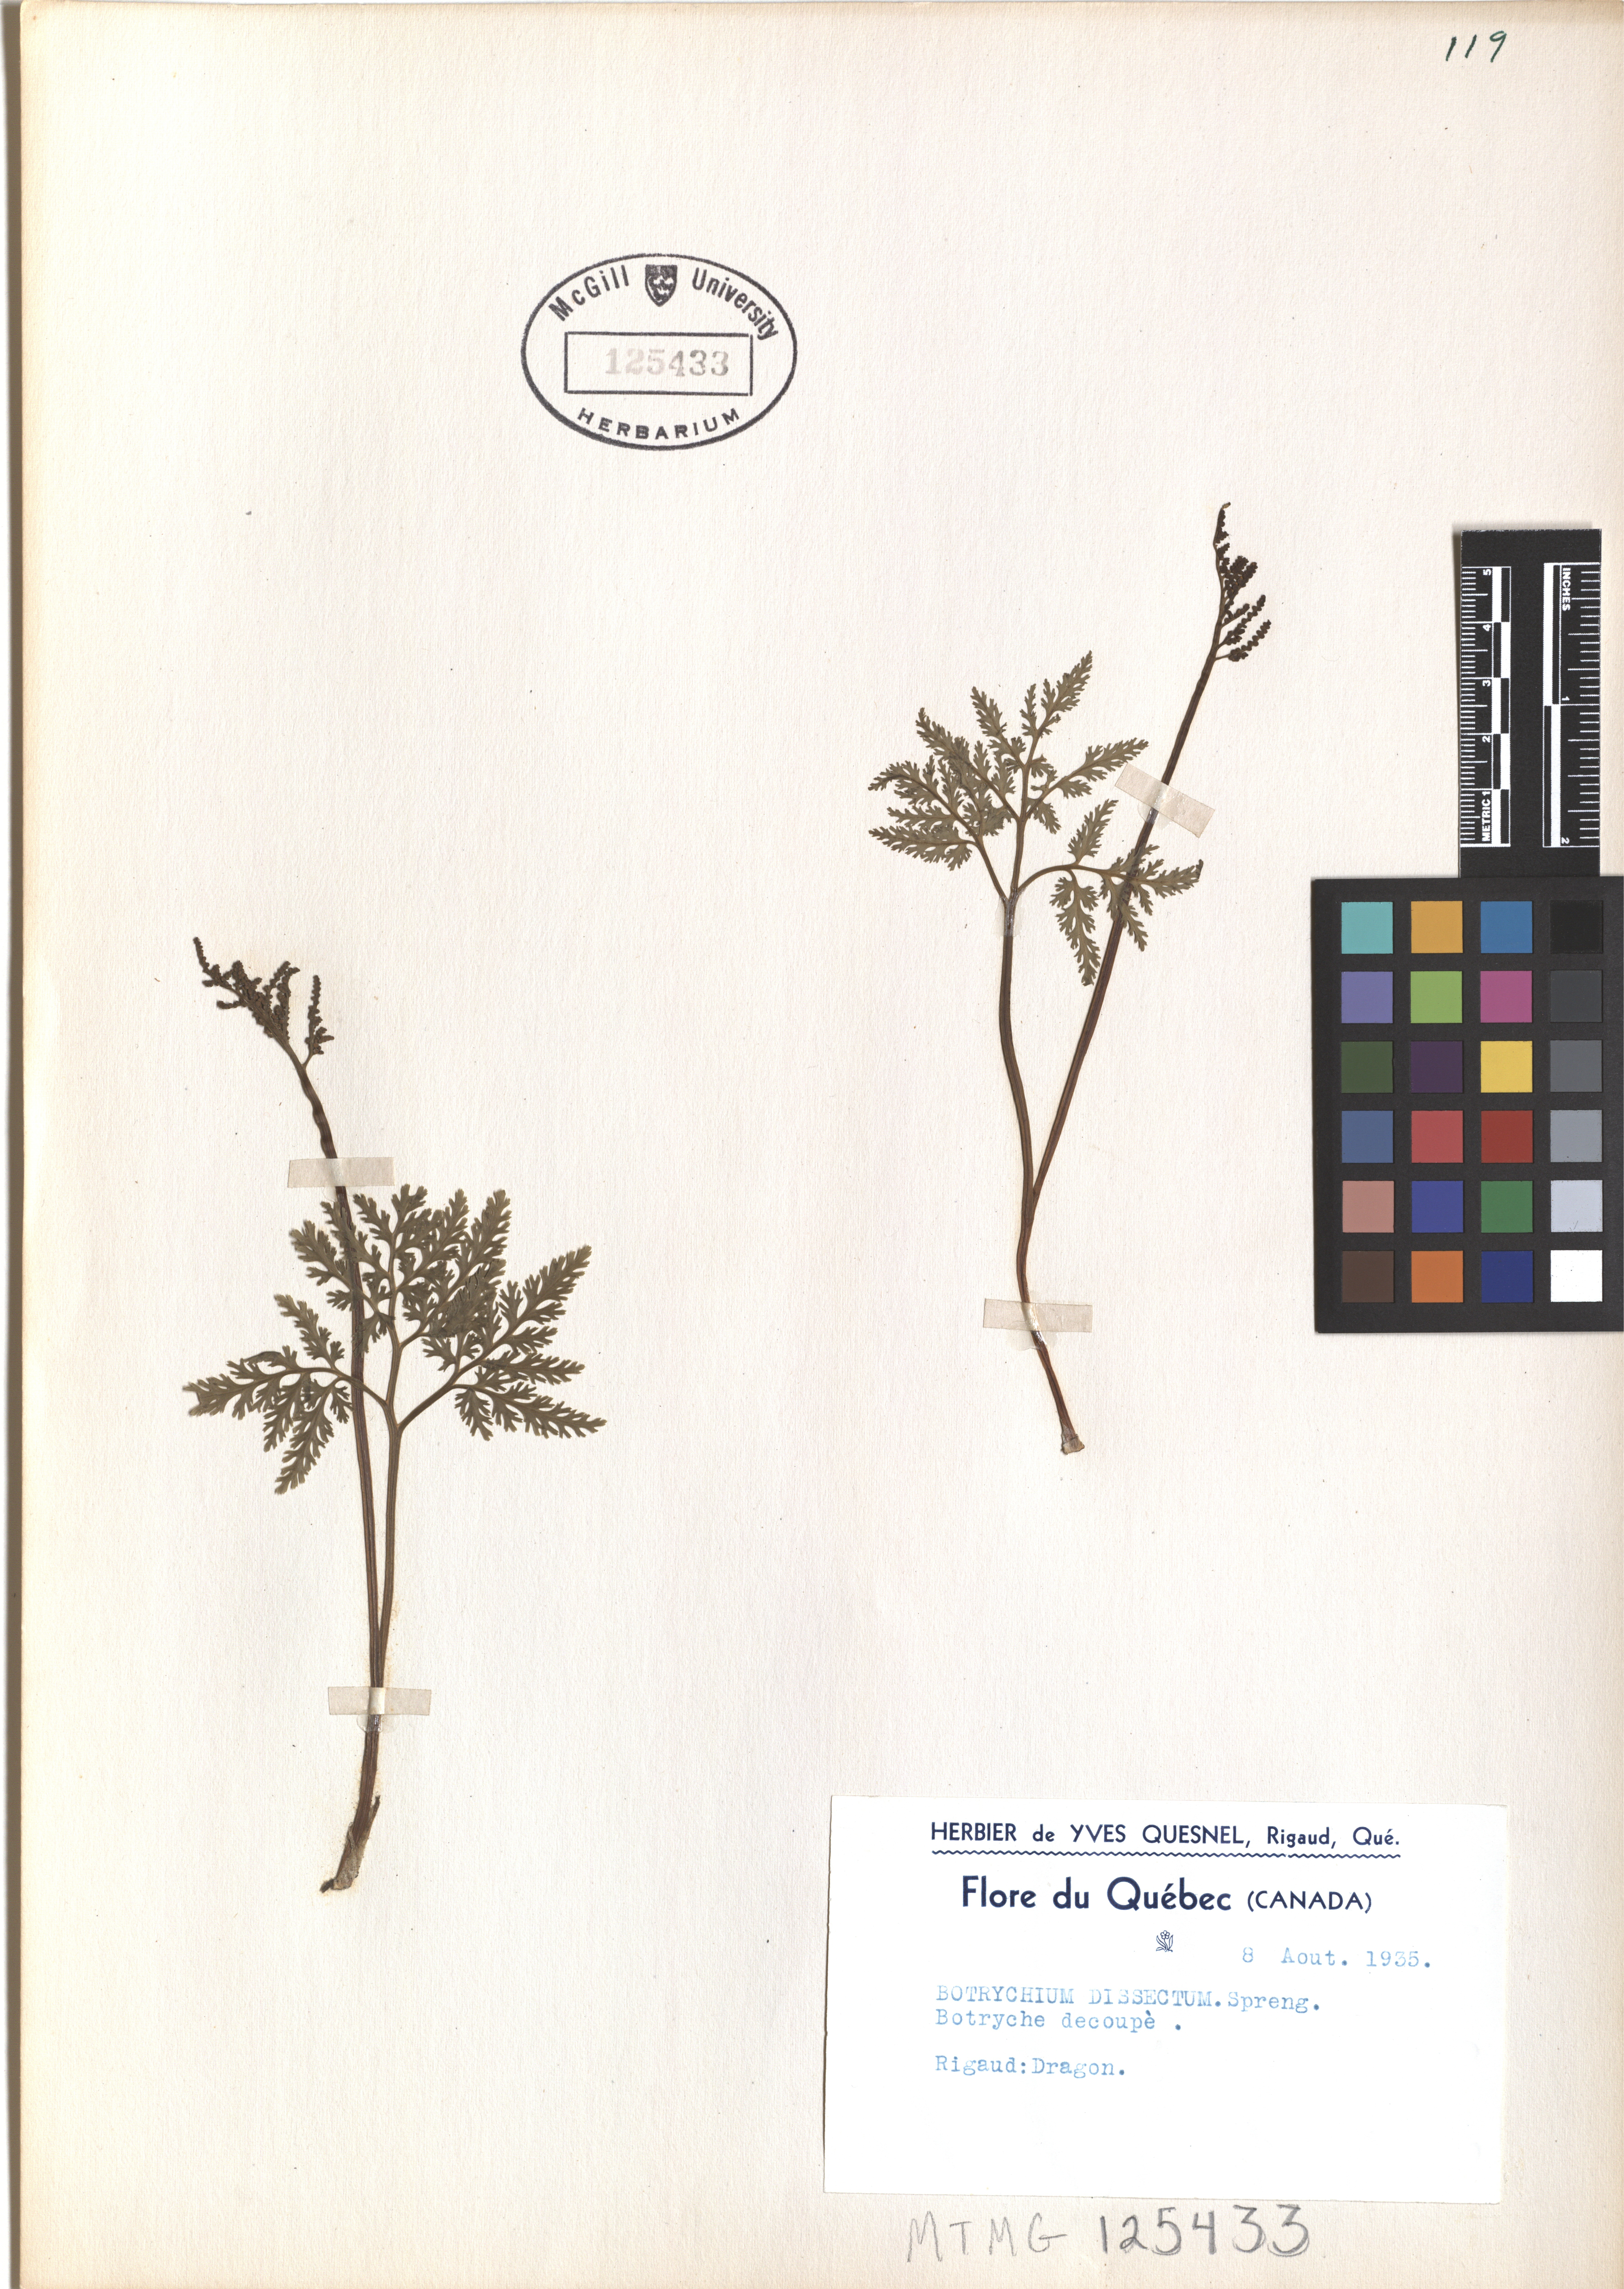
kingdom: Plantae
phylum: Tracheophyta
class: Polypodiopsida
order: Ophioglossales
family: Ophioglossaceae
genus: Sceptridium
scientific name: Sceptridium dissectum
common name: Cut-leaved grapefern
